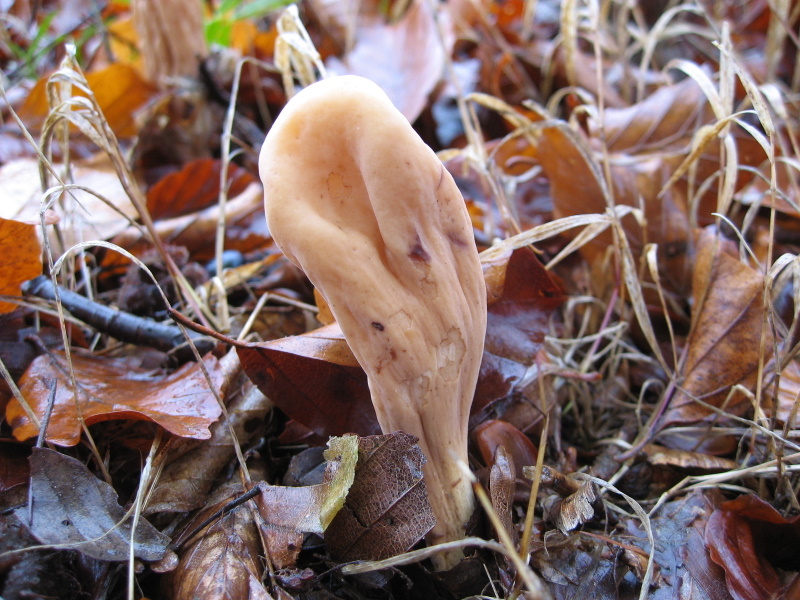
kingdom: Fungi
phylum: Basidiomycota
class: Agaricomycetes
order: Gomphales
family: Clavariadelphaceae
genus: Clavariadelphus
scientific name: Clavariadelphus pistillaris
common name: herkules-kæmpekølle
